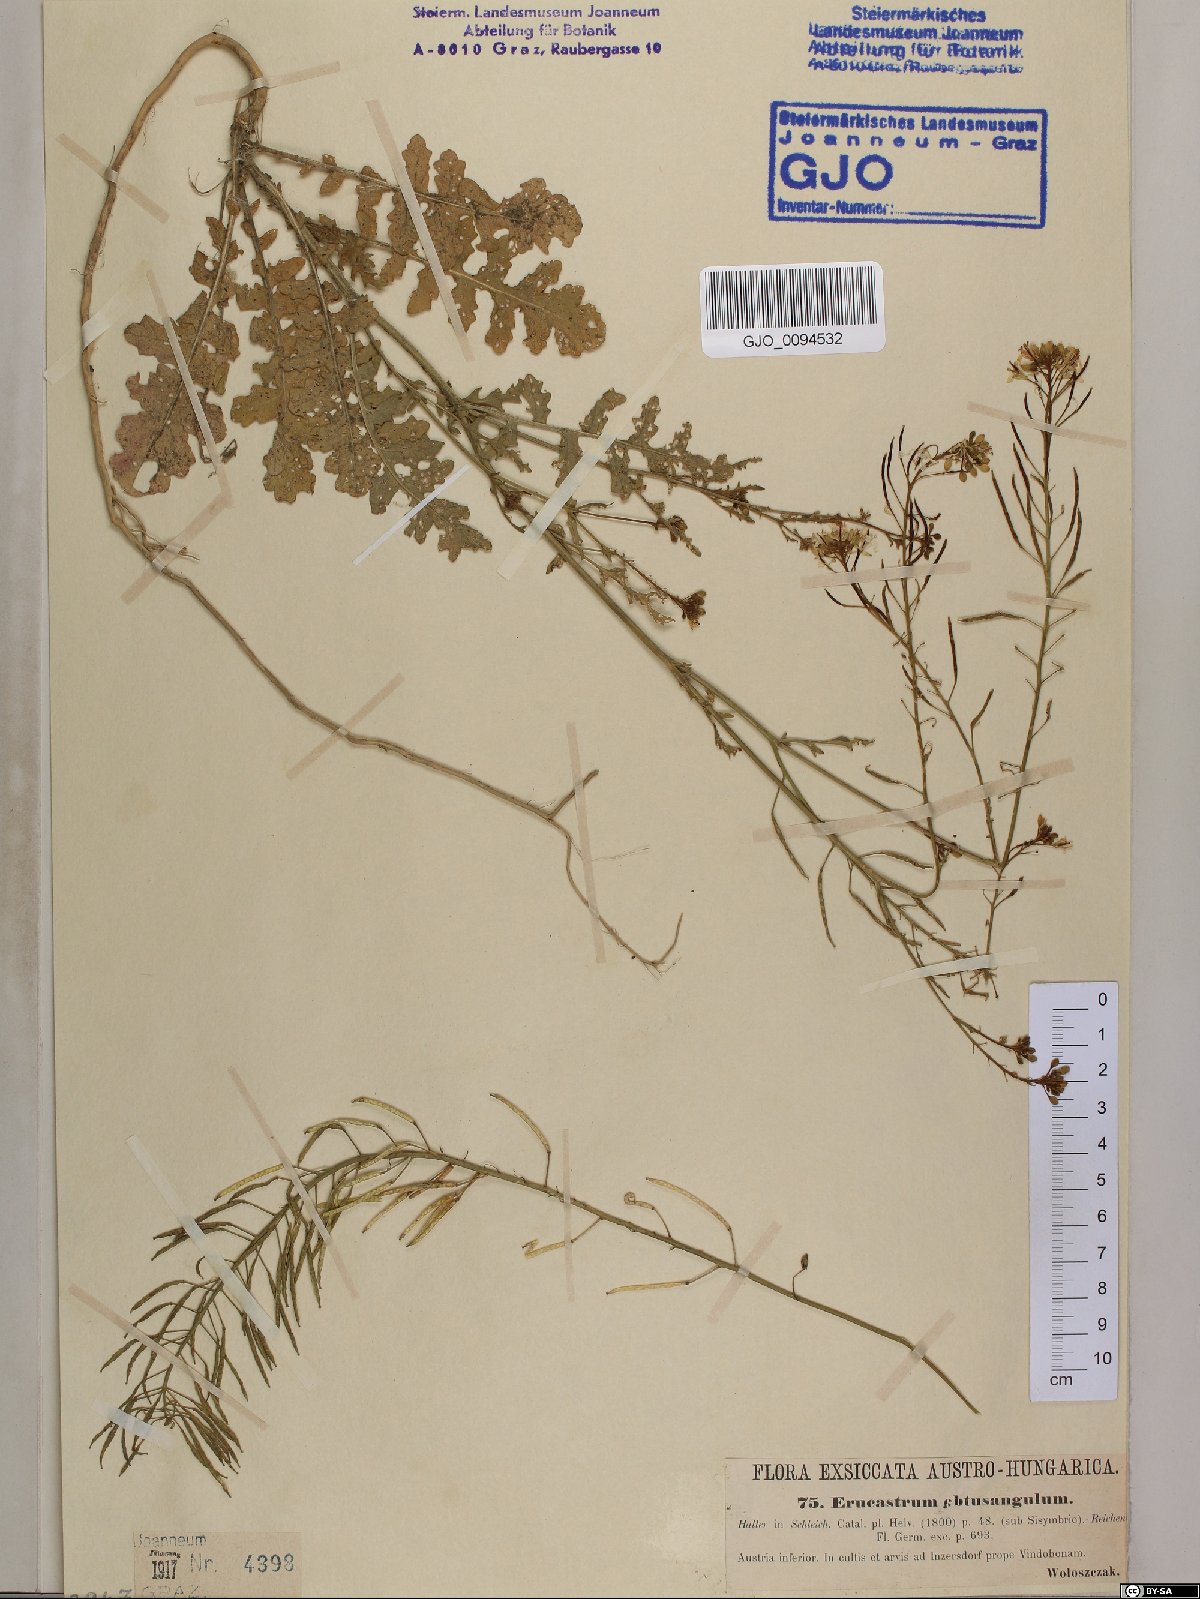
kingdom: Plantae
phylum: Tracheophyta
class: Magnoliopsida
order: Brassicales
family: Brassicaceae
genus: Erucastrum
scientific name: Erucastrum nasturtiifolium
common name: Watercress-leaf rocket
